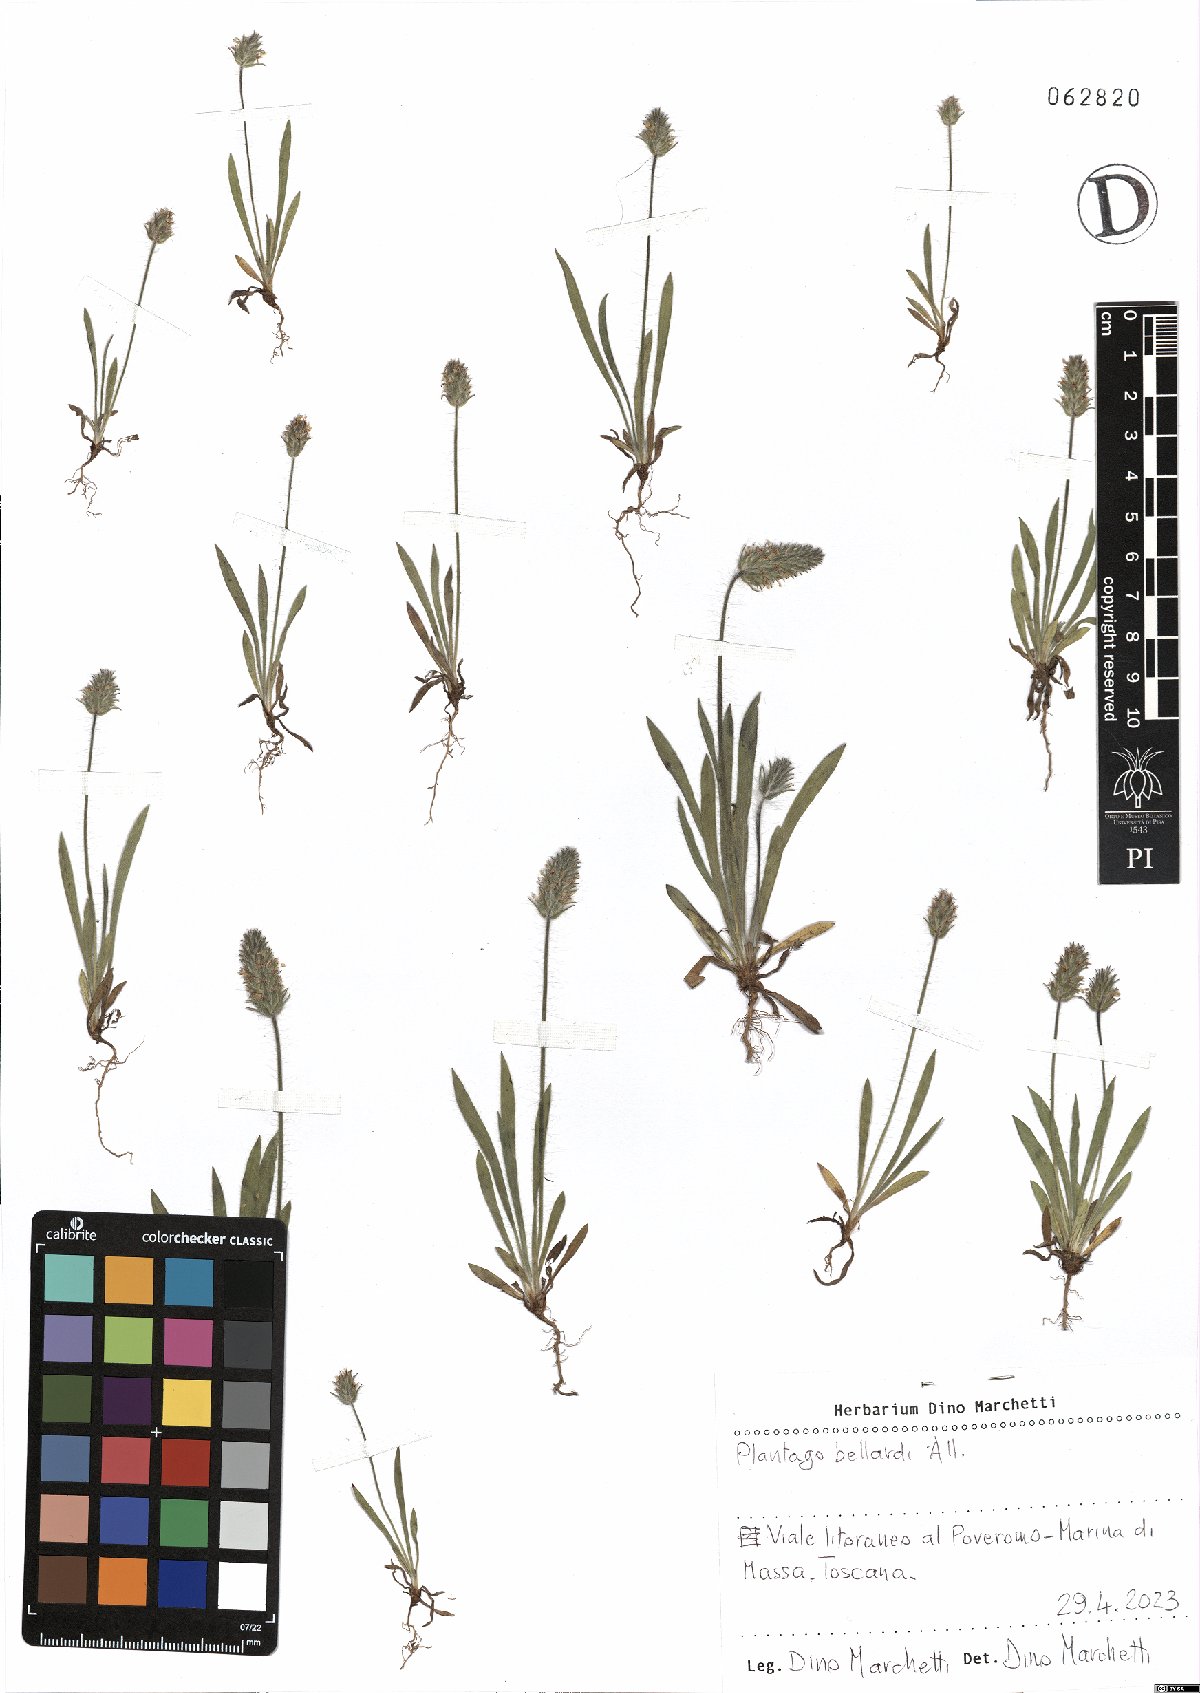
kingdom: Plantae
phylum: Tracheophyta
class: Magnoliopsida
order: Lamiales
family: Plantaginaceae
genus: Plantago
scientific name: Plantago bellardii
